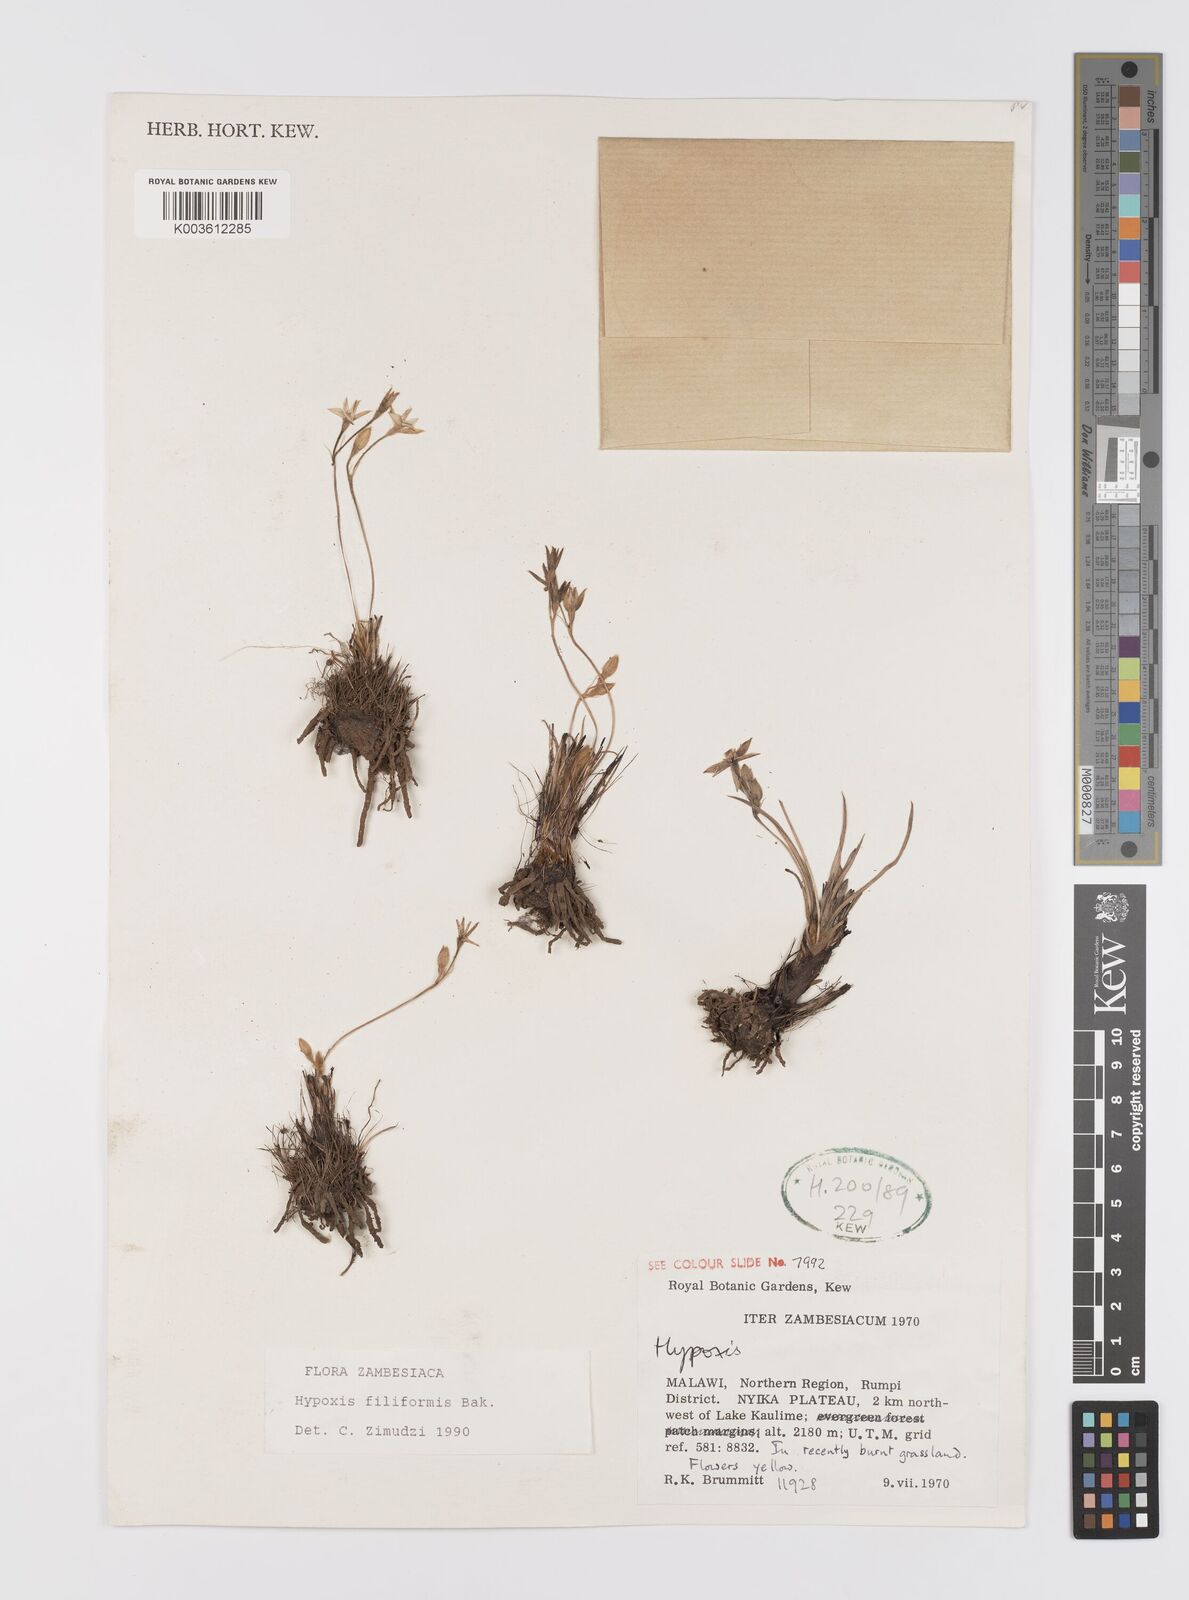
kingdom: Plantae
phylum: Tracheophyta
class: Liliopsida
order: Asparagales
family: Hypoxidaceae
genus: Hypoxis
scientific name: Hypoxis filiformis
